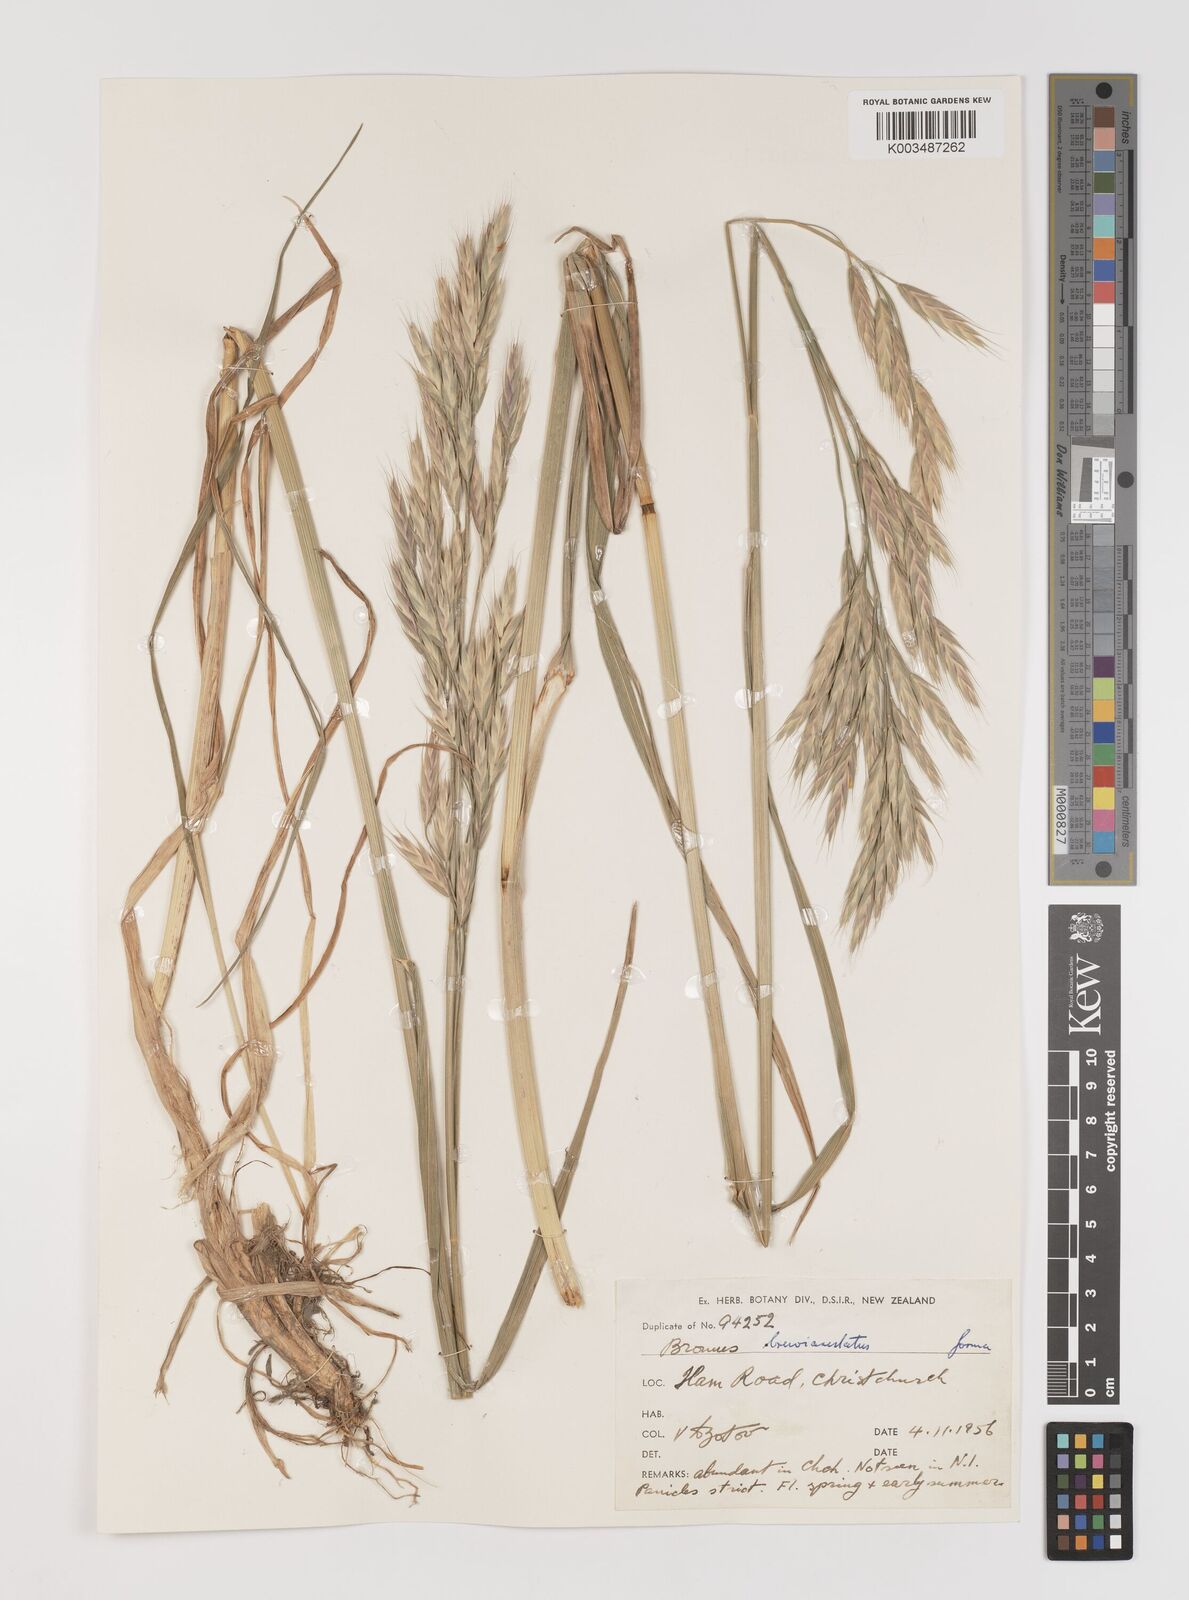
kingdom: Plantae
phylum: Tracheophyta
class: Liliopsida
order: Poales
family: Poaceae
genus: Bromus
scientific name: Bromus marginatus
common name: Western brome
